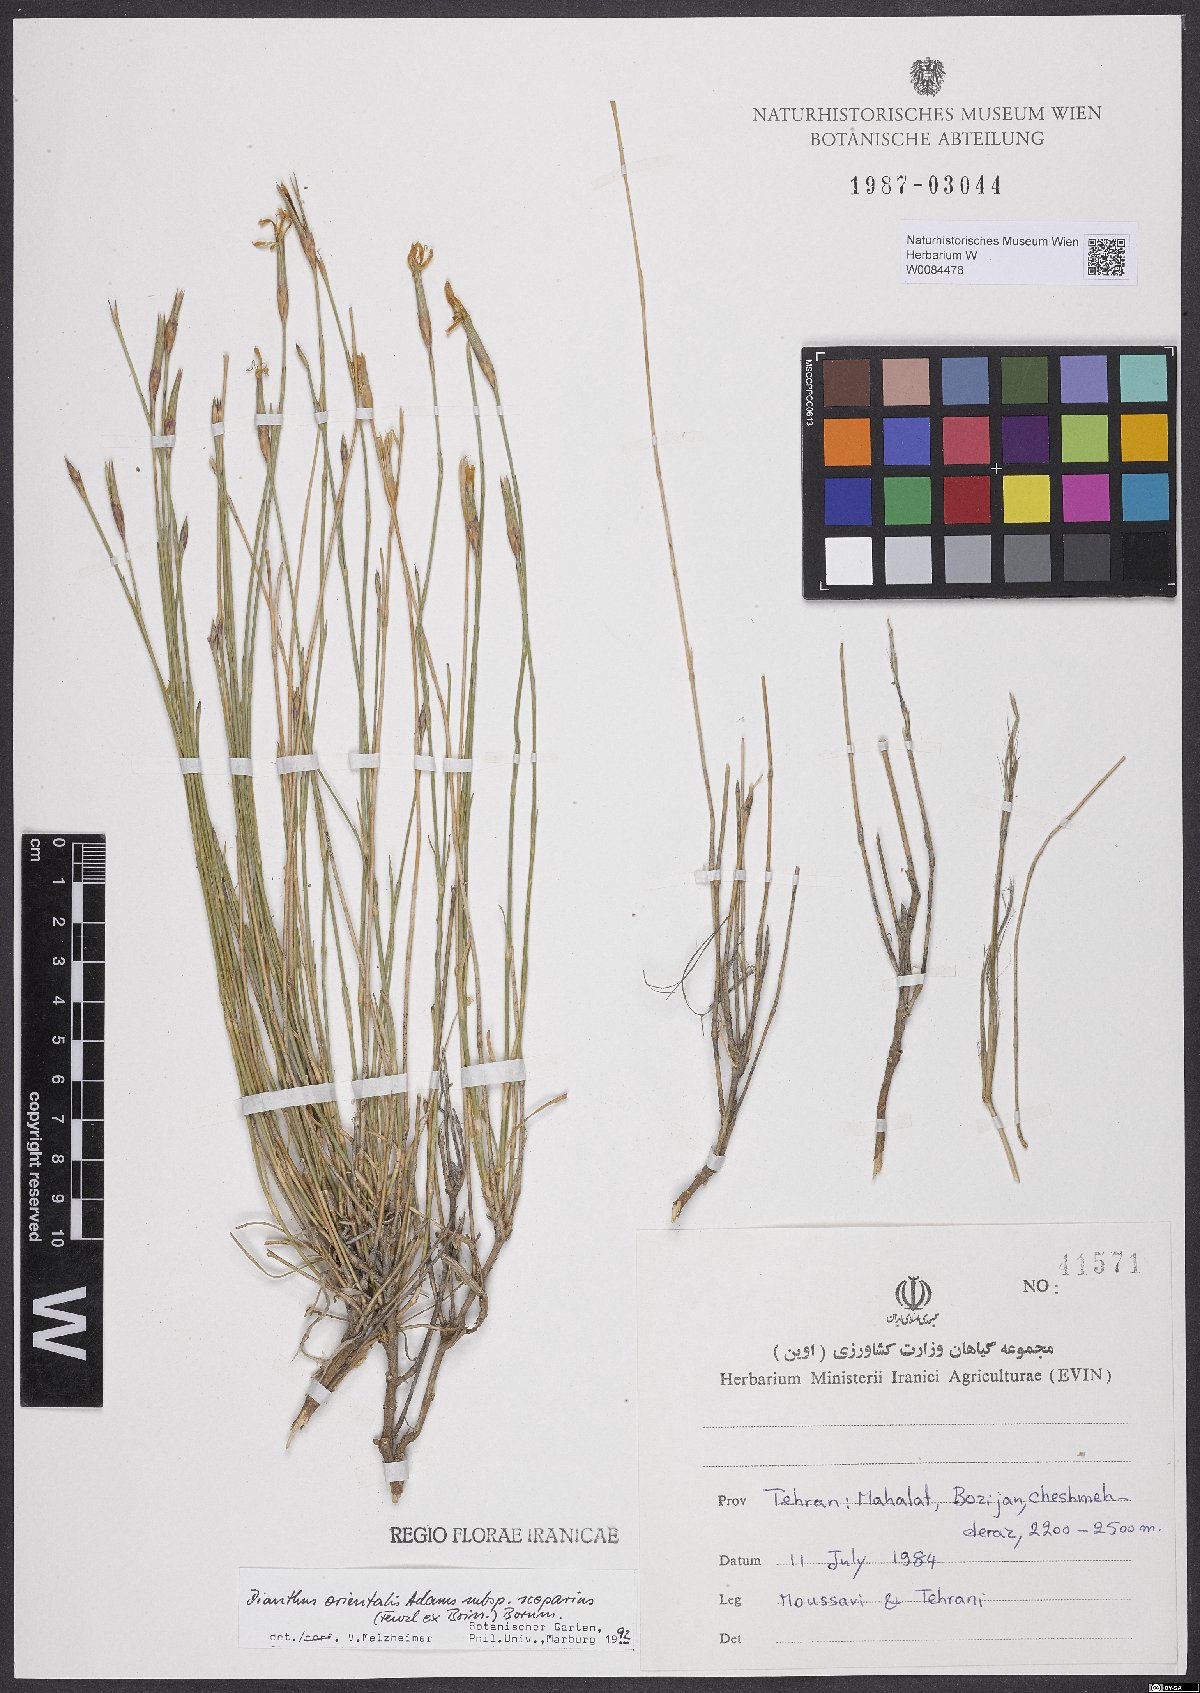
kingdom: Plantae
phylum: Tracheophyta
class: Magnoliopsida
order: Caryophyllales
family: Caryophyllaceae
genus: Dianthus
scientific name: Dianthus orientalis
